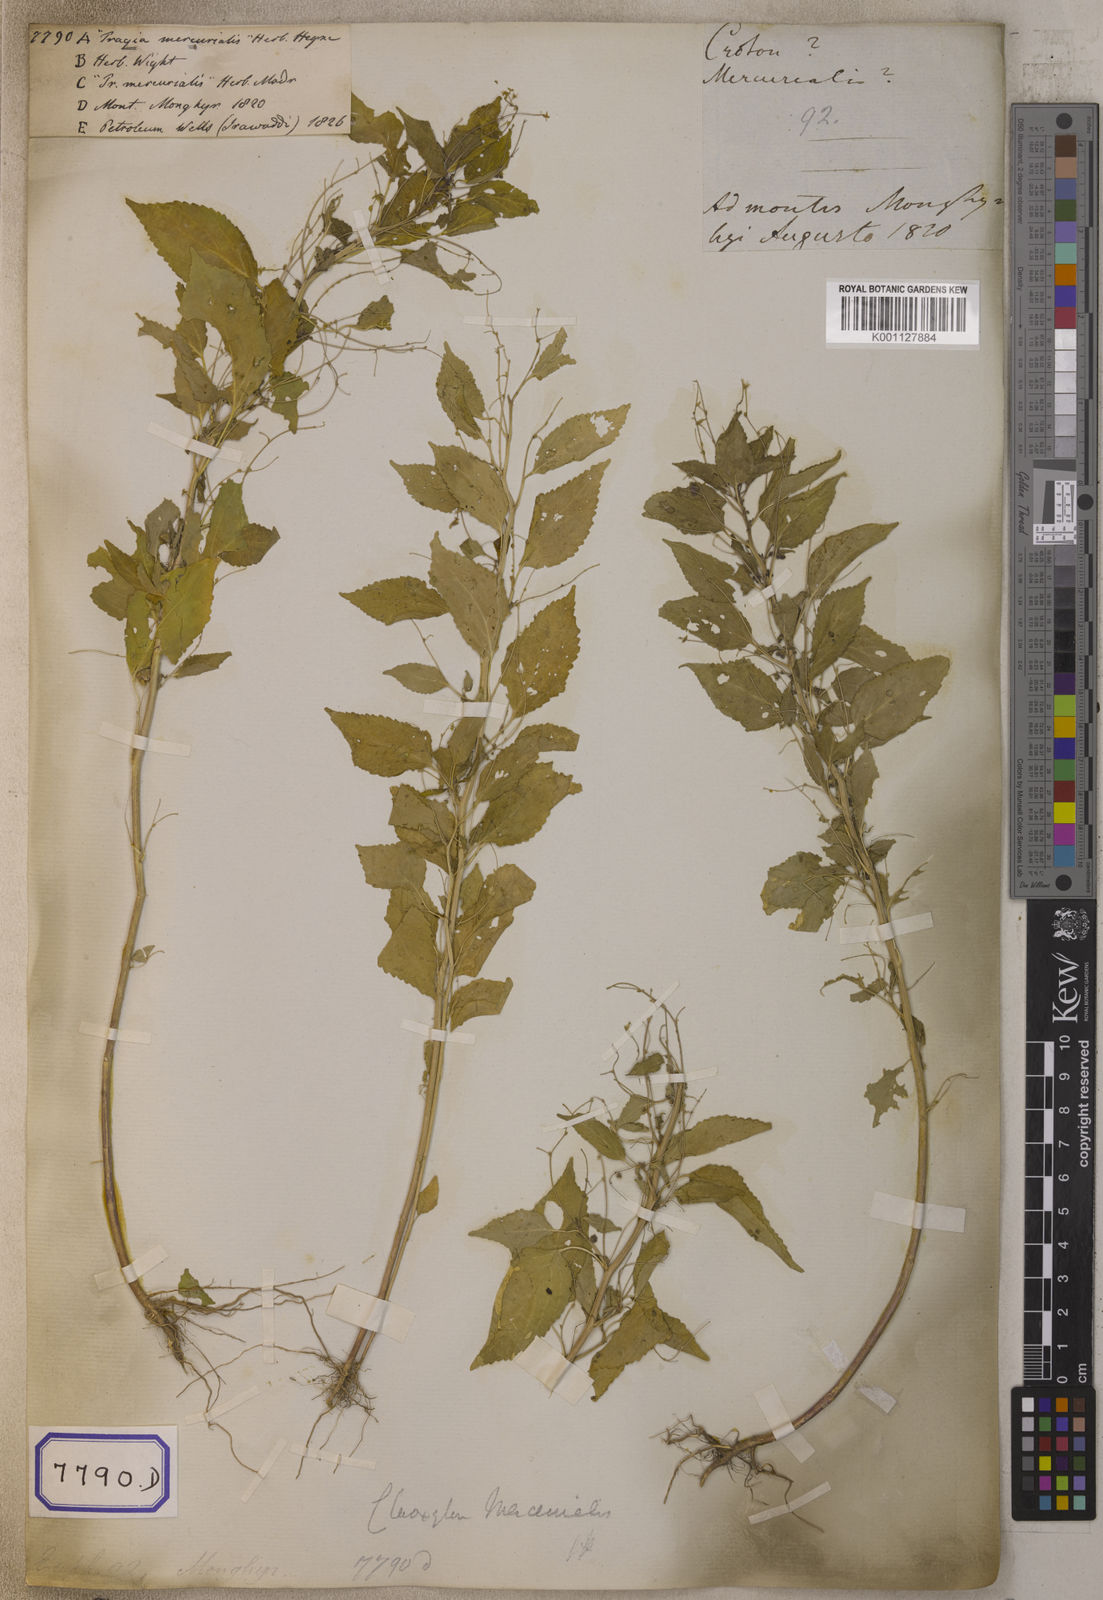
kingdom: Plantae
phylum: Tracheophyta
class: Magnoliopsida
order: Malpighiales
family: Euphorbiaceae
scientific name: Euphorbiaceae
